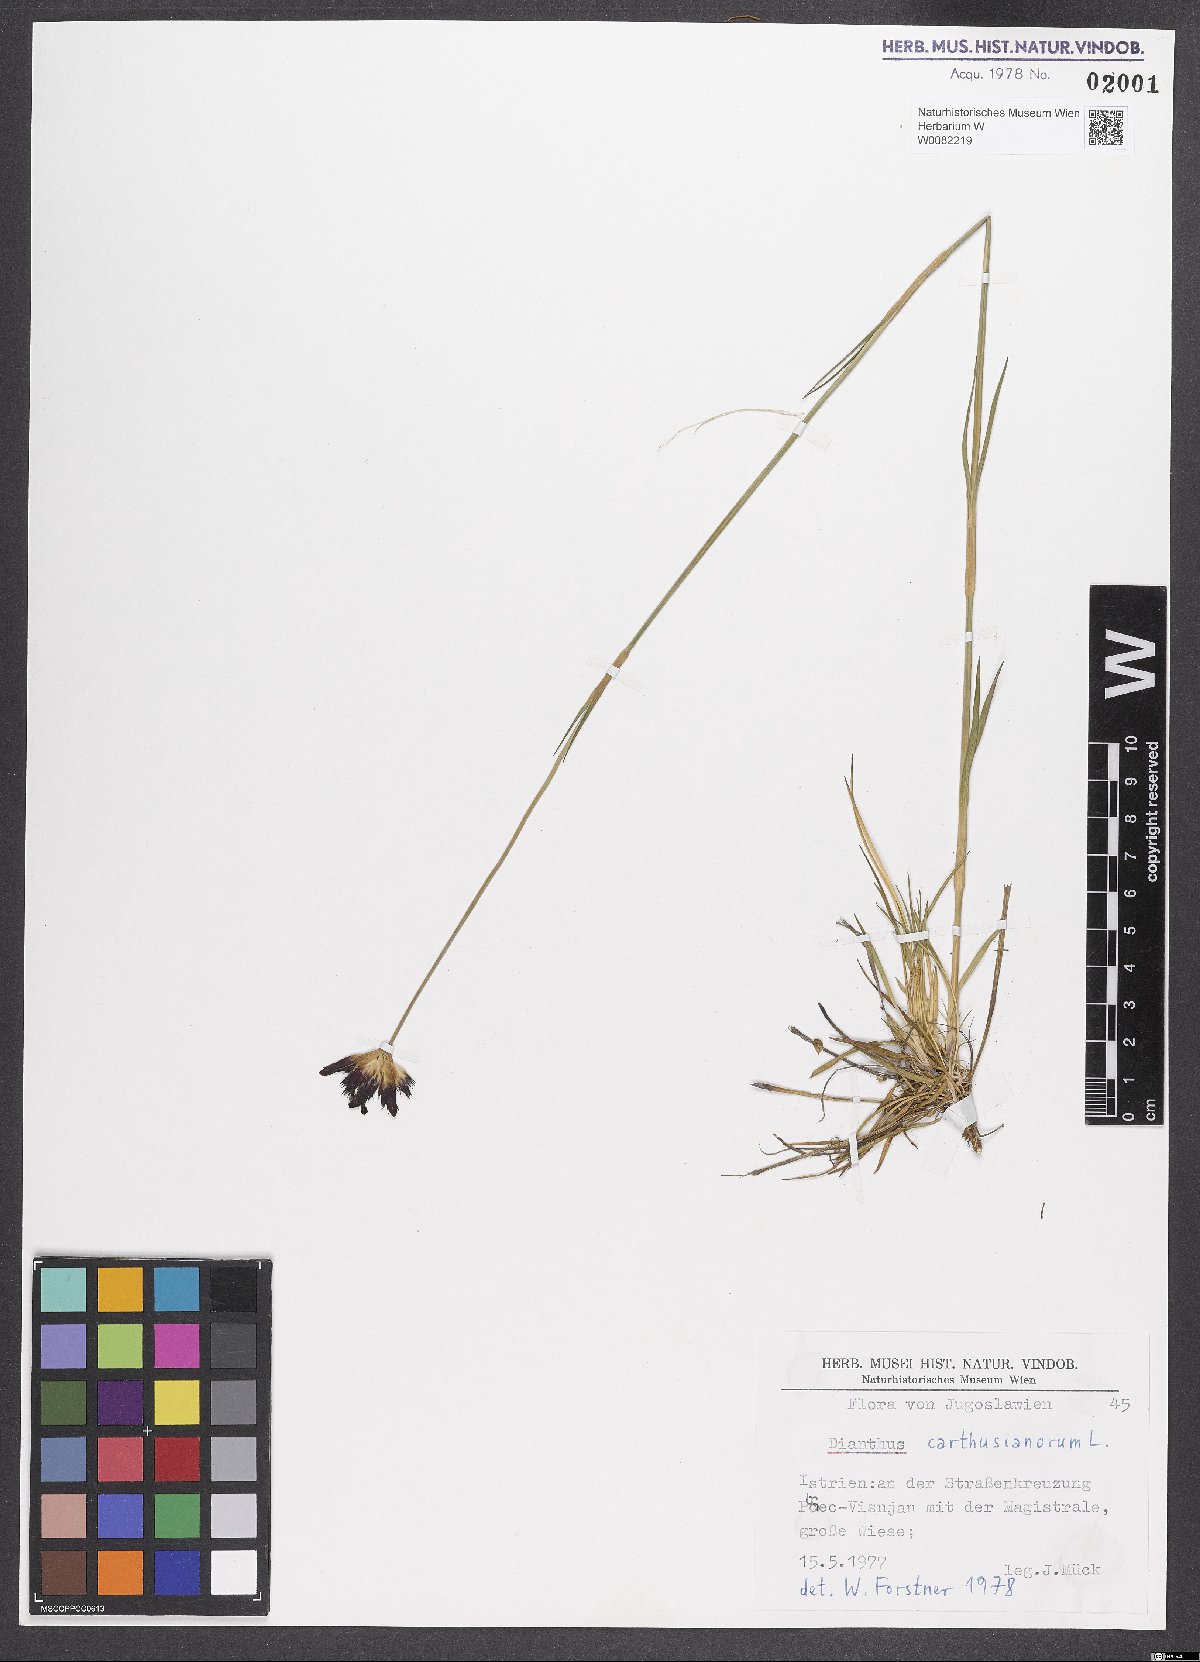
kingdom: Plantae
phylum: Tracheophyta
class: Magnoliopsida
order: Caryophyllales
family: Caryophyllaceae
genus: Dianthus
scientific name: Dianthus carthusianorum
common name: Carthusian pink
